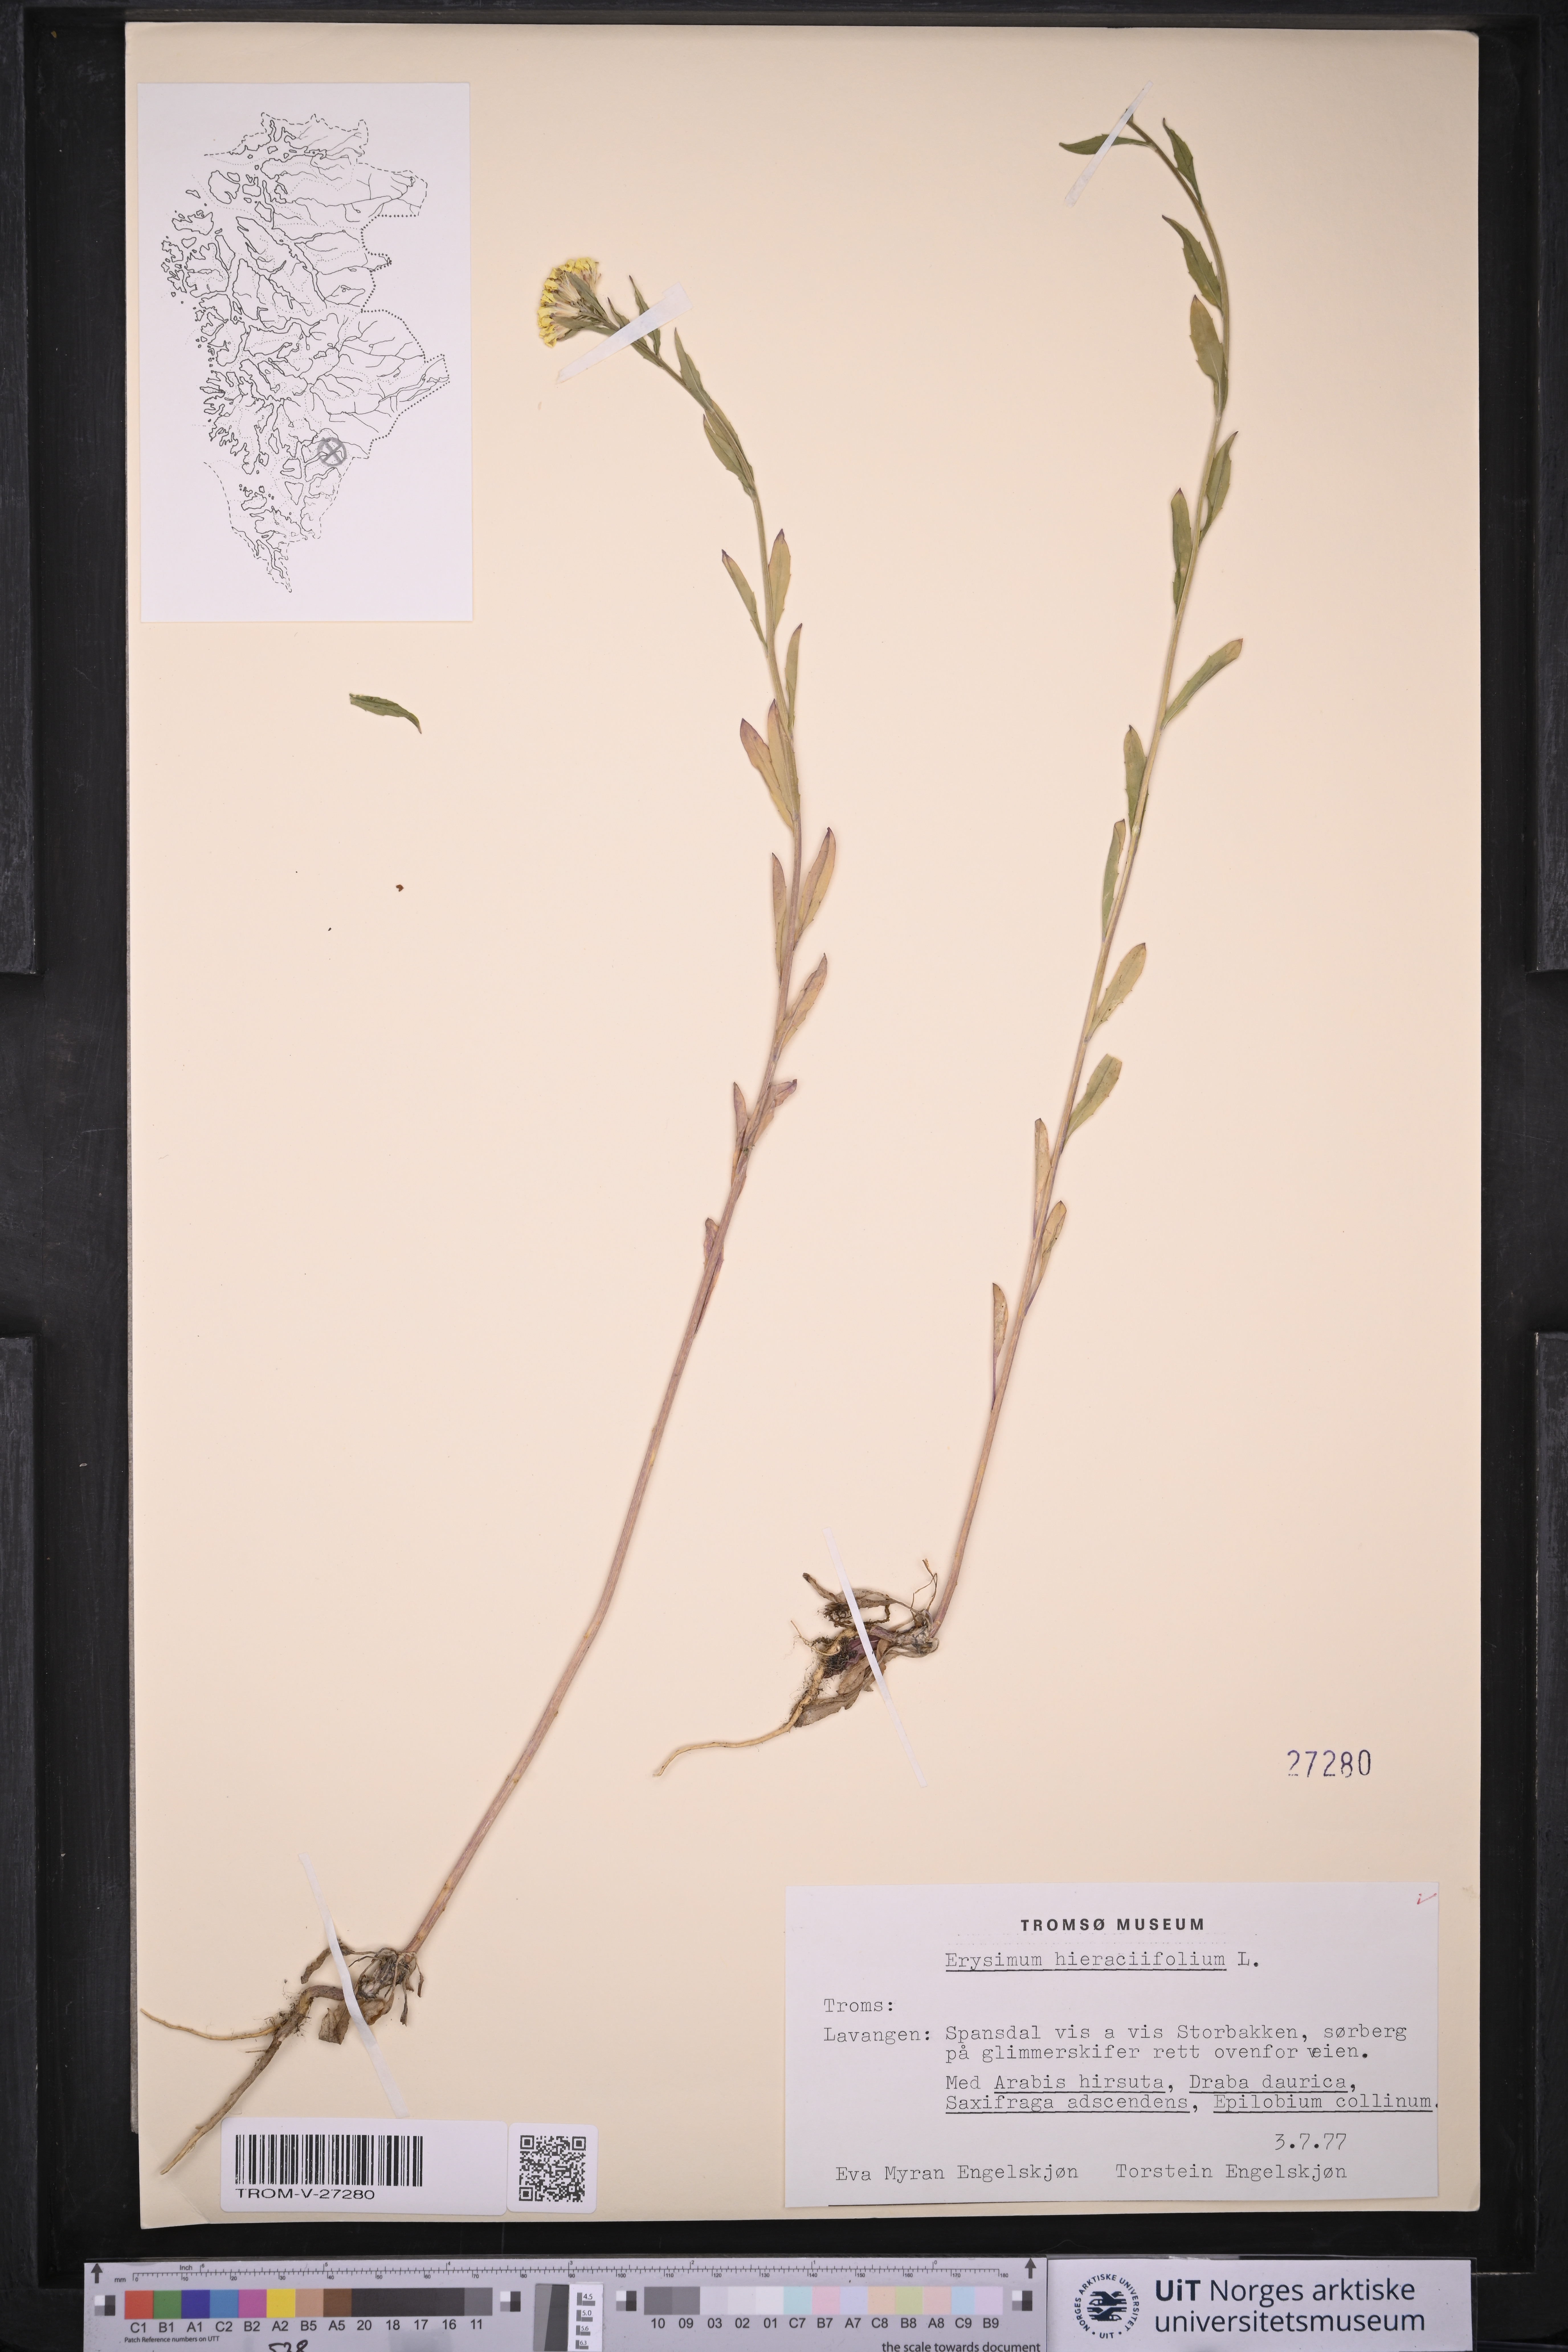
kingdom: Plantae
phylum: Tracheophyta
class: Magnoliopsida
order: Brassicales
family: Brassicaceae
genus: Erysimum
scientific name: Erysimum virgatum
